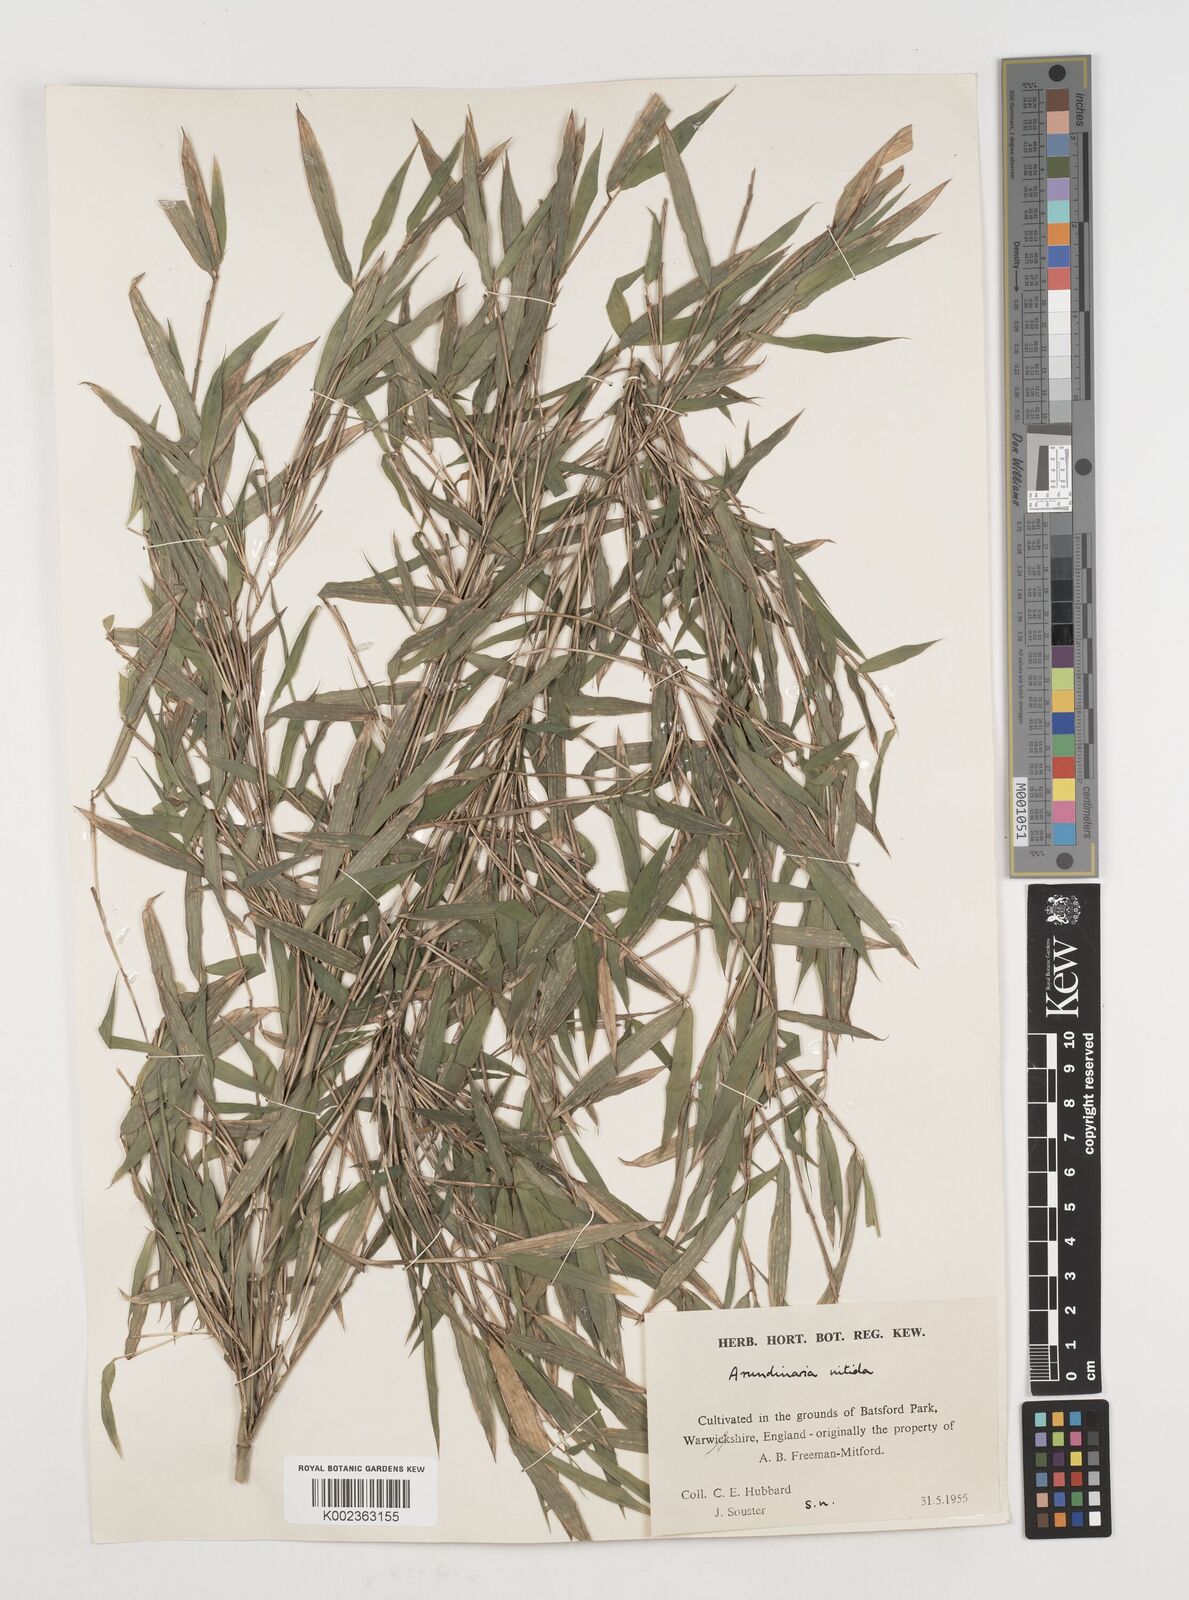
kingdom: Plantae
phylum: Tracheophyta
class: Liliopsida
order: Poales
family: Poaceae
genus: Fargesia
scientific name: Fargesia nitida ex
